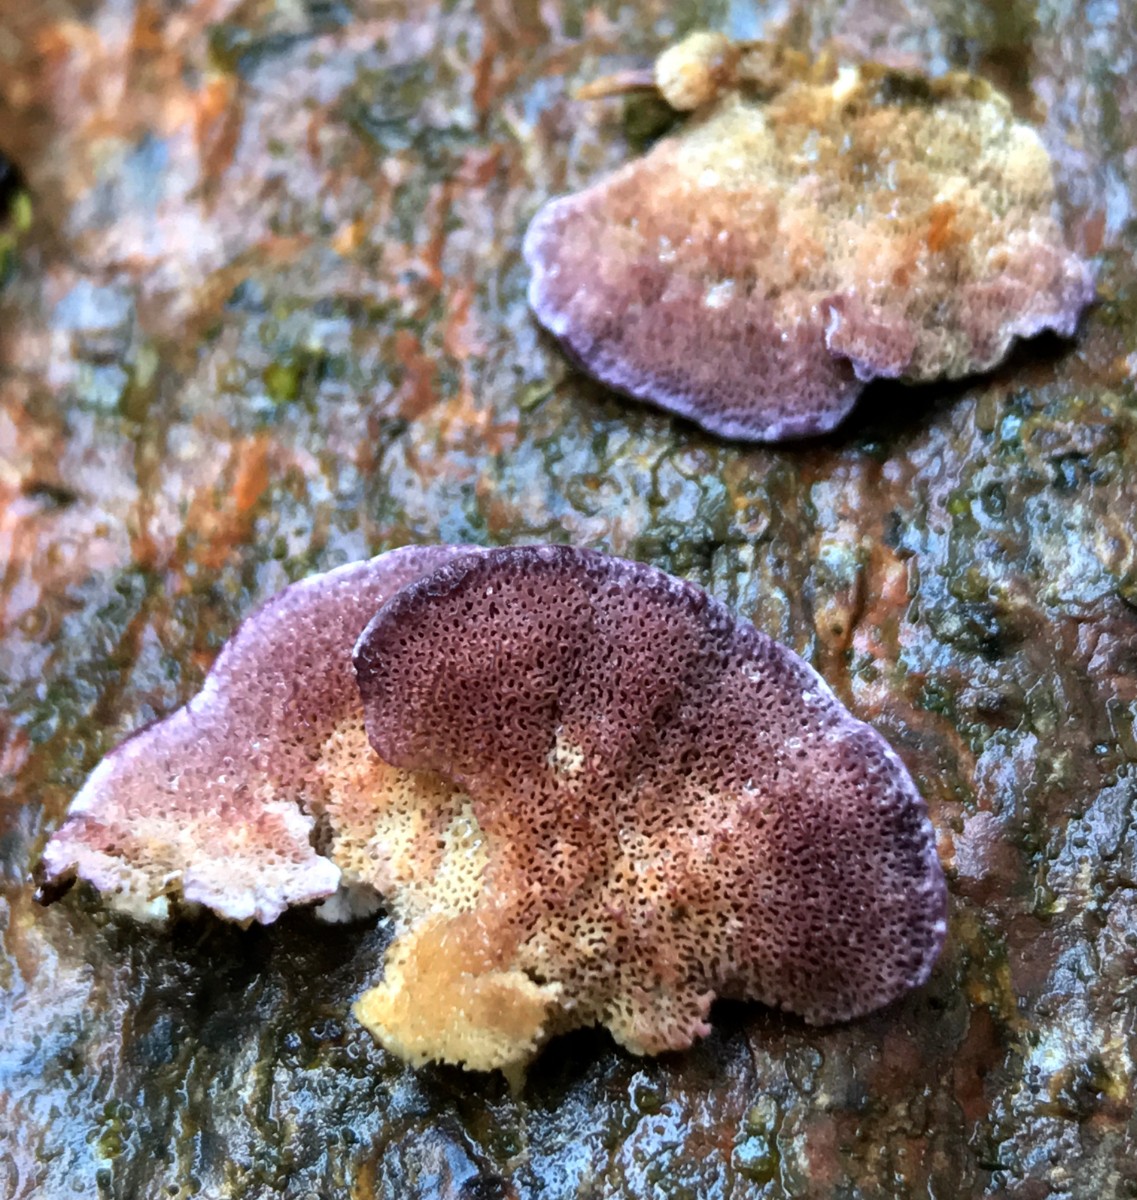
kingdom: Fungi
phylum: Basidiomycota
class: Agaricomycetes
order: Hymenochaetales
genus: Trichaptum
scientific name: Trichaptum abietinum
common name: almindelig violporesvamp
